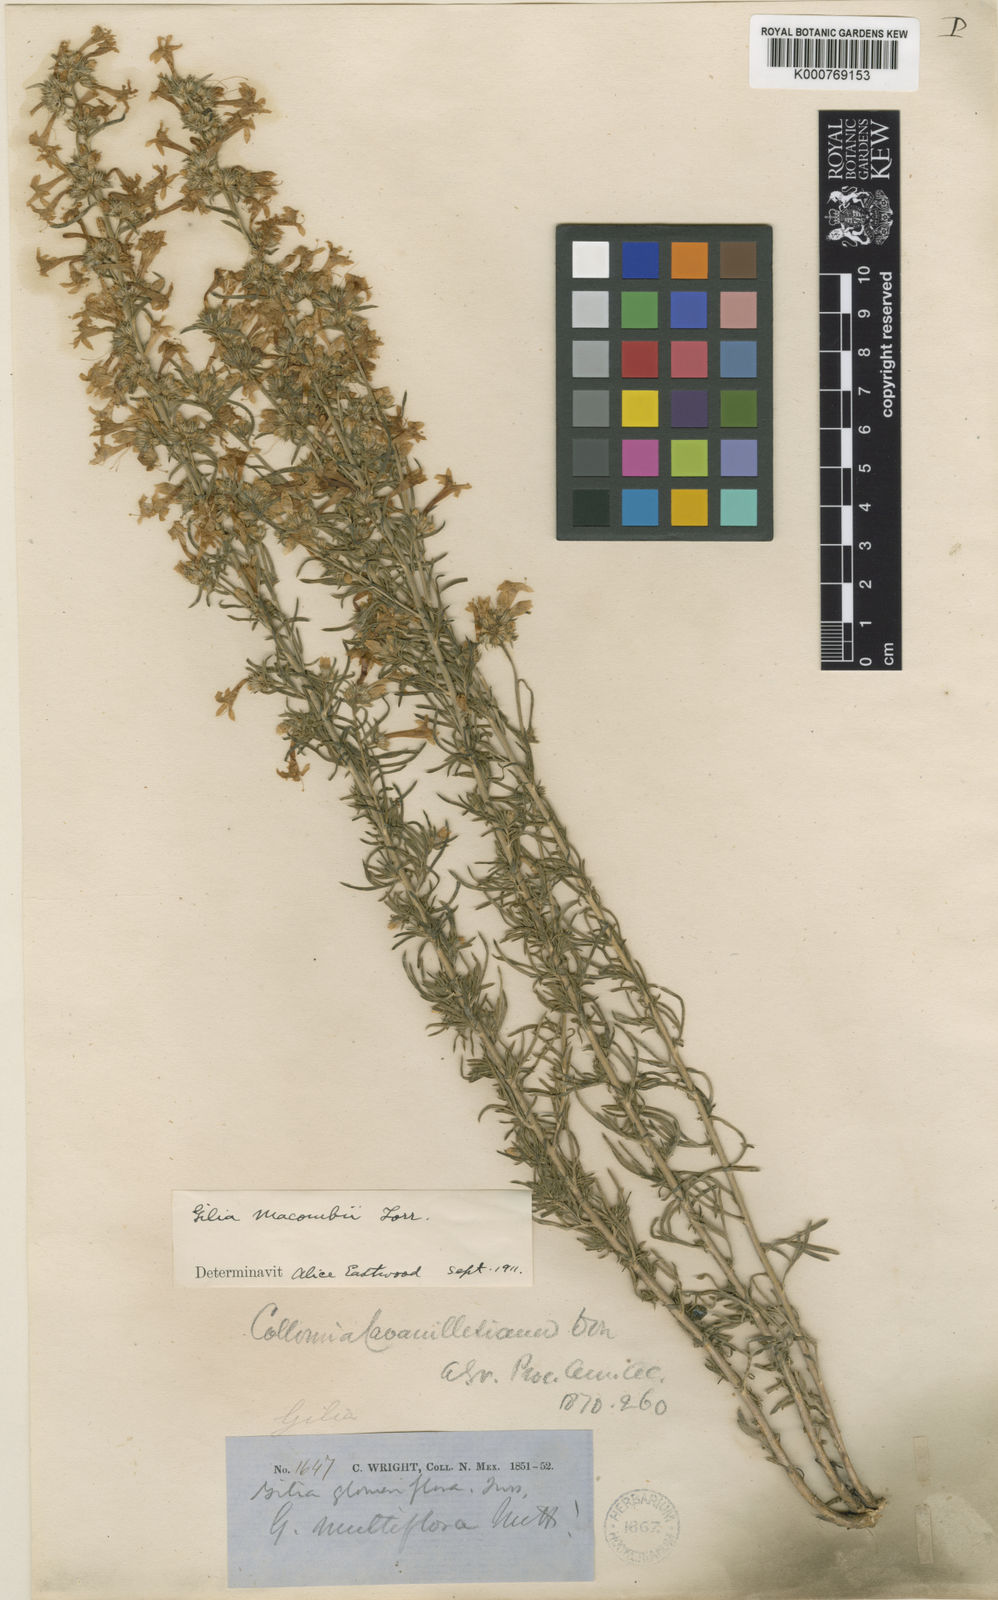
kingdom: Plantae
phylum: Tracheophyta
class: Magnoliopsida
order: Ericales
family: Polemoniaceae
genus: Ipomopsis
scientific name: Ipomopsis macombii
